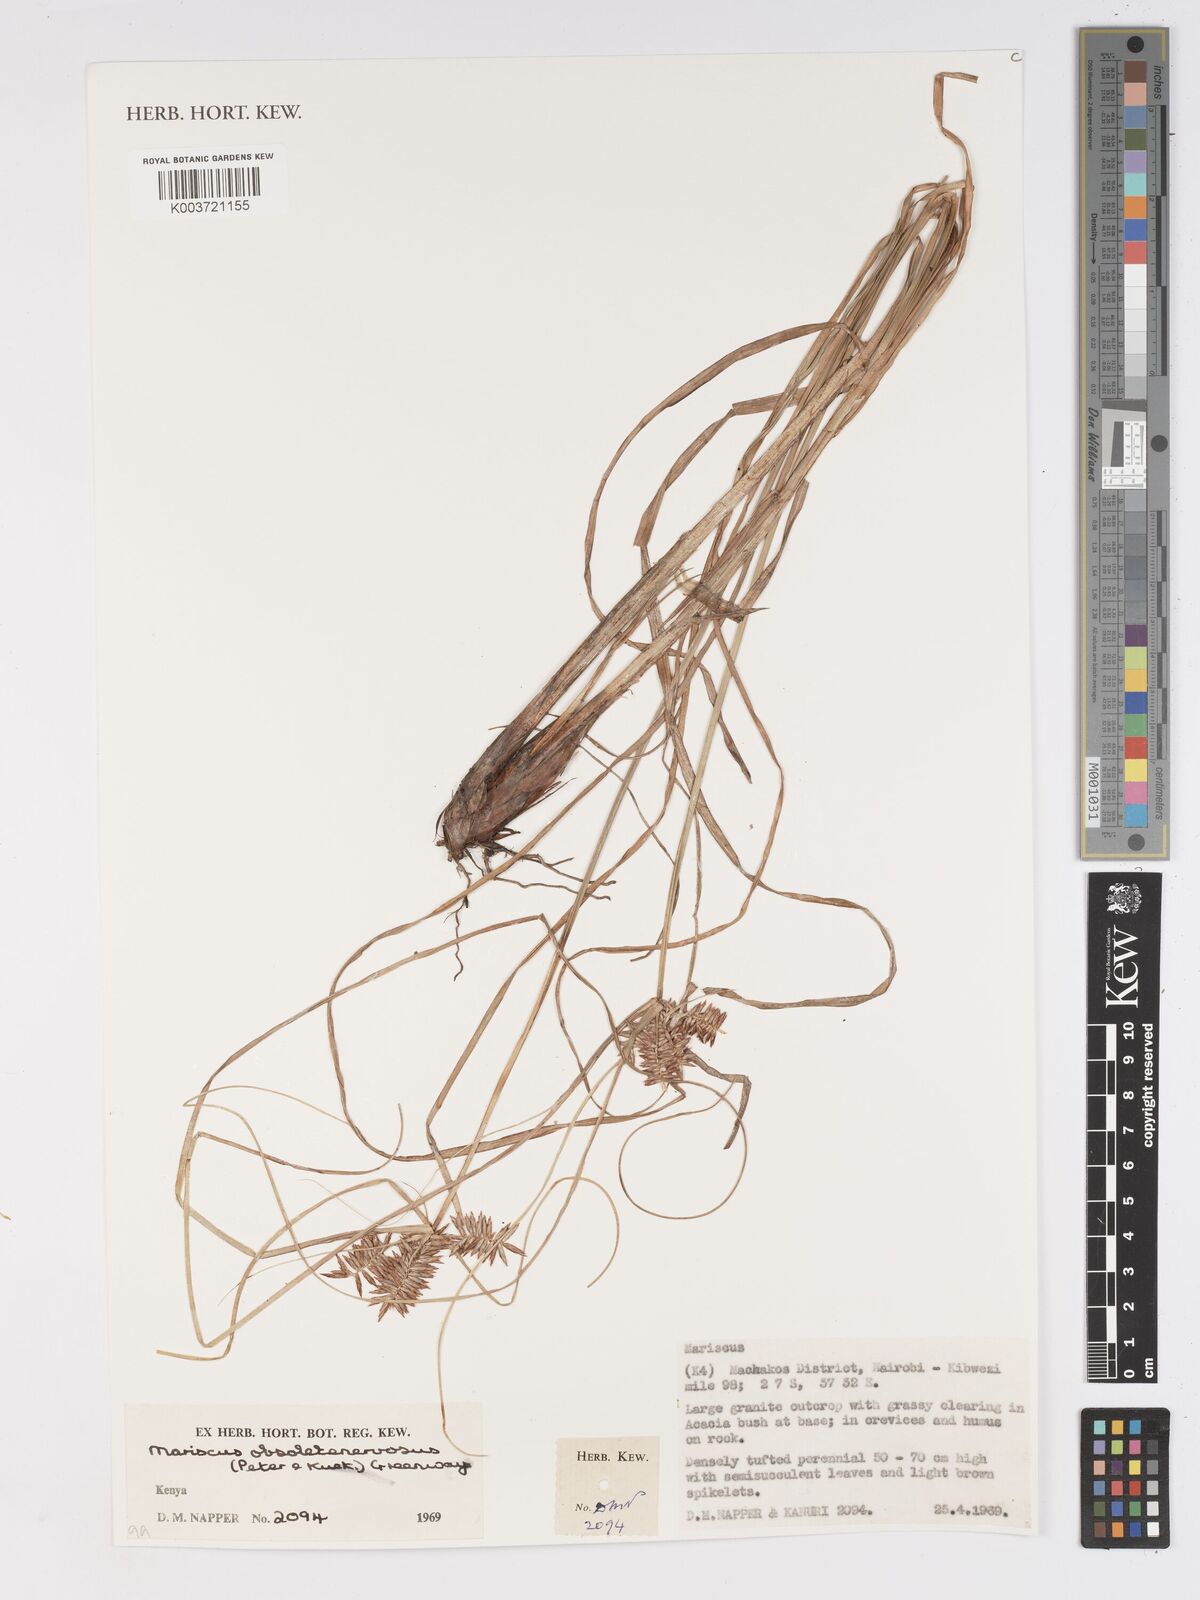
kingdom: Plantae
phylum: Tracheophyta
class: Liliopsida
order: Poales
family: Cyperaceae
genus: Cyperus
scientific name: Cyperus vestitus
